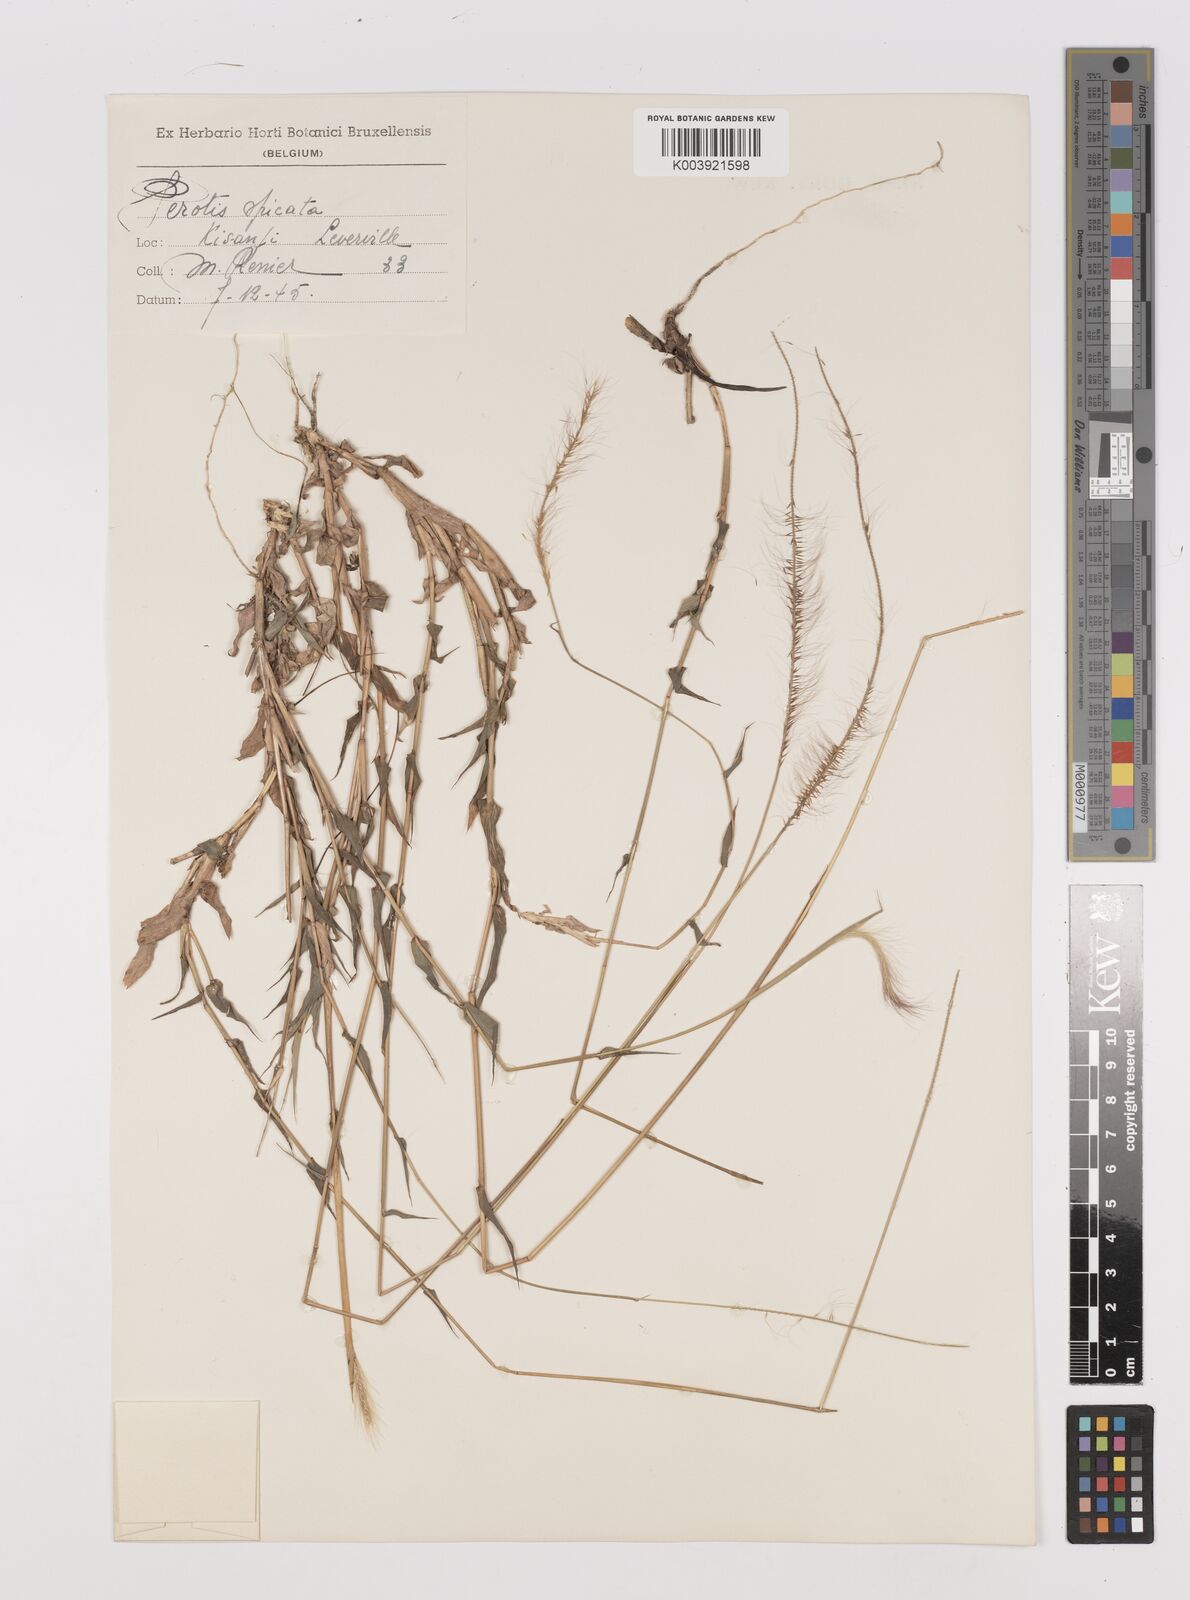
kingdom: Plantae
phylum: Tracheophyta
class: Liliopsida
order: Poales
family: Poaceae
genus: Perotis
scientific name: Perotis patens
